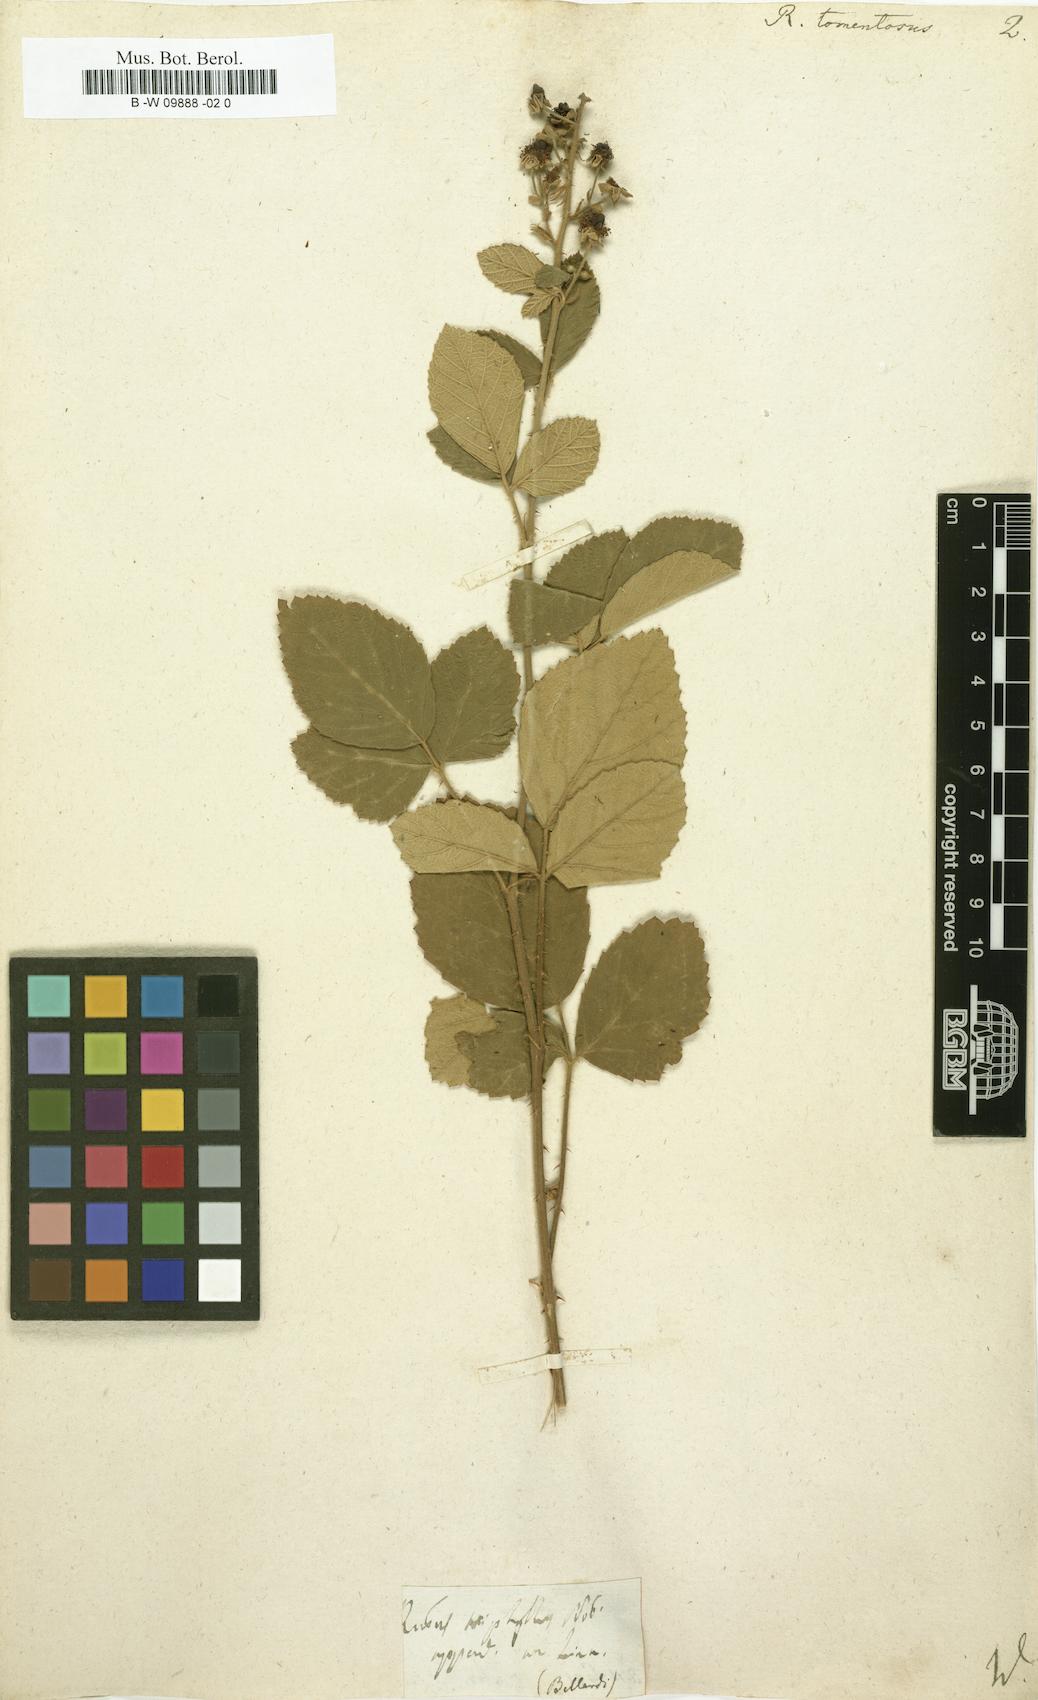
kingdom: Plantae
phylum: Tracheophyta
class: Magnoliopsida
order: Rosales
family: Rosaceae
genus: Rubus
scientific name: Rubus aetnicus
